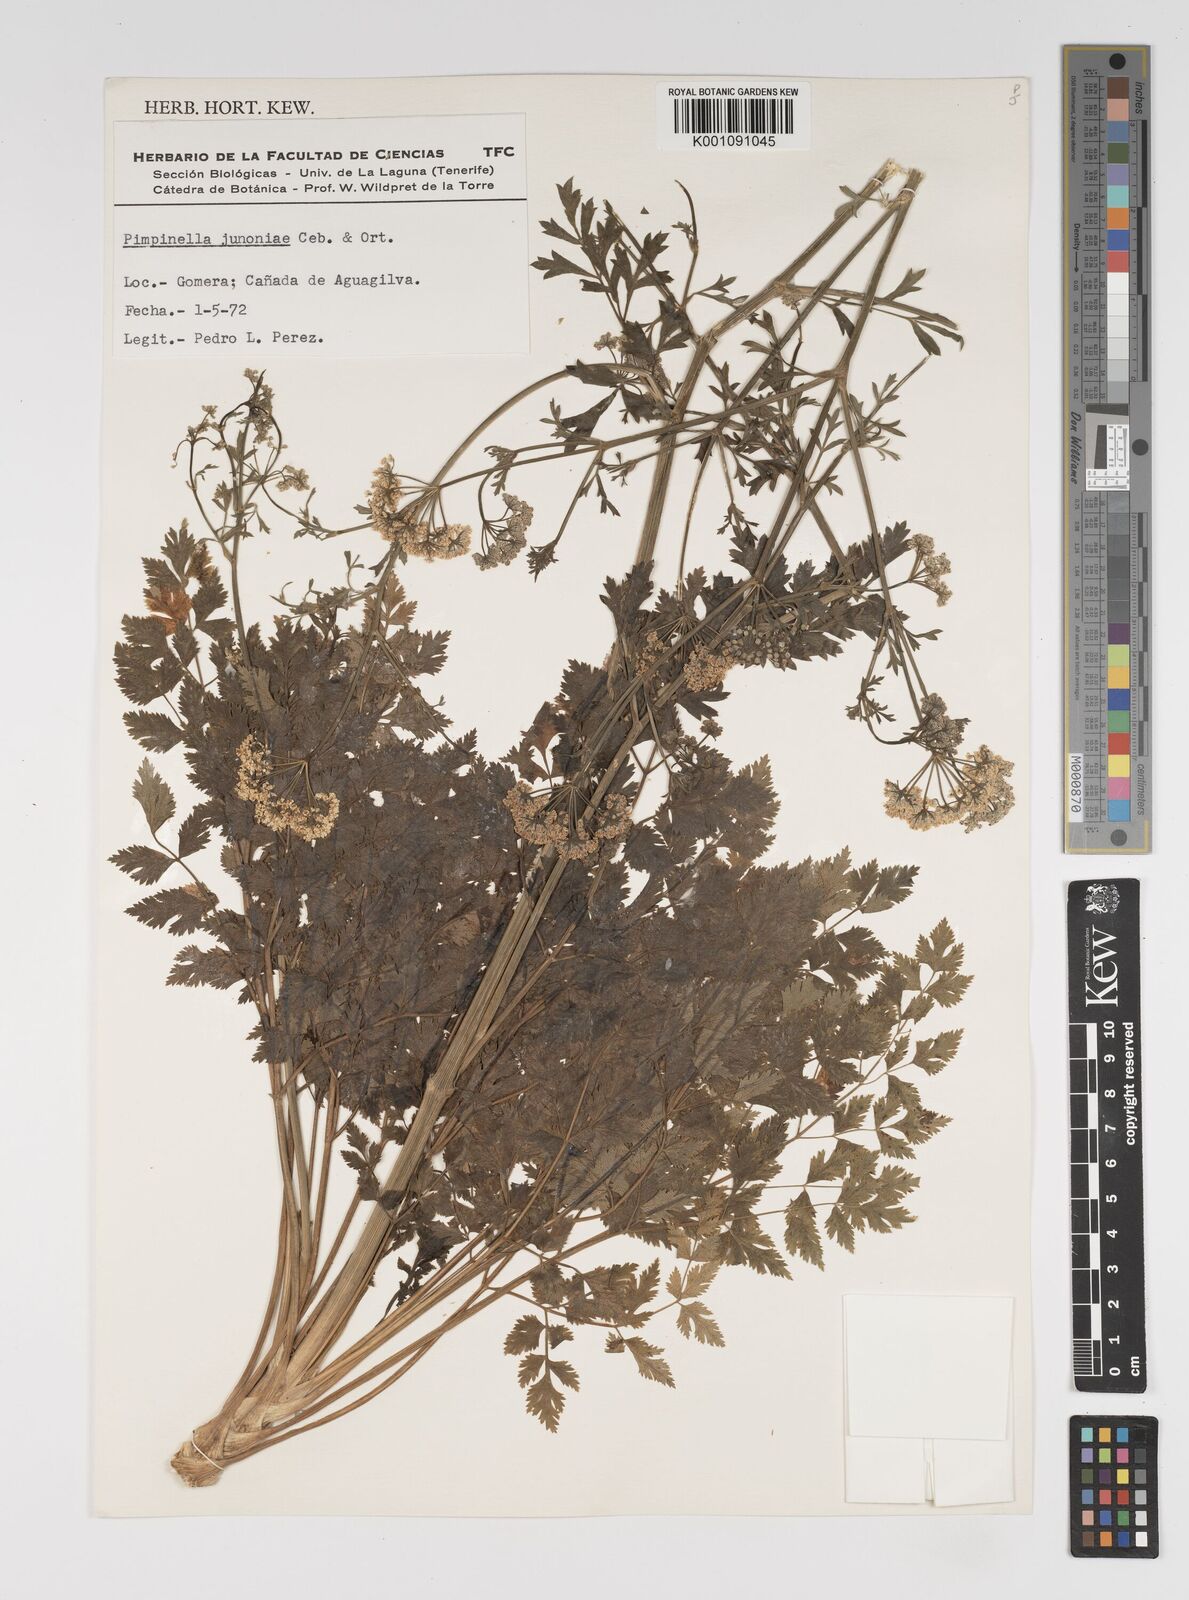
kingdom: Plantae
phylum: Tracheophyta
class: Magnoliopsida
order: Apiales
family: Apiaceae
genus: Pimpinella
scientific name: Pimpinella junionae
